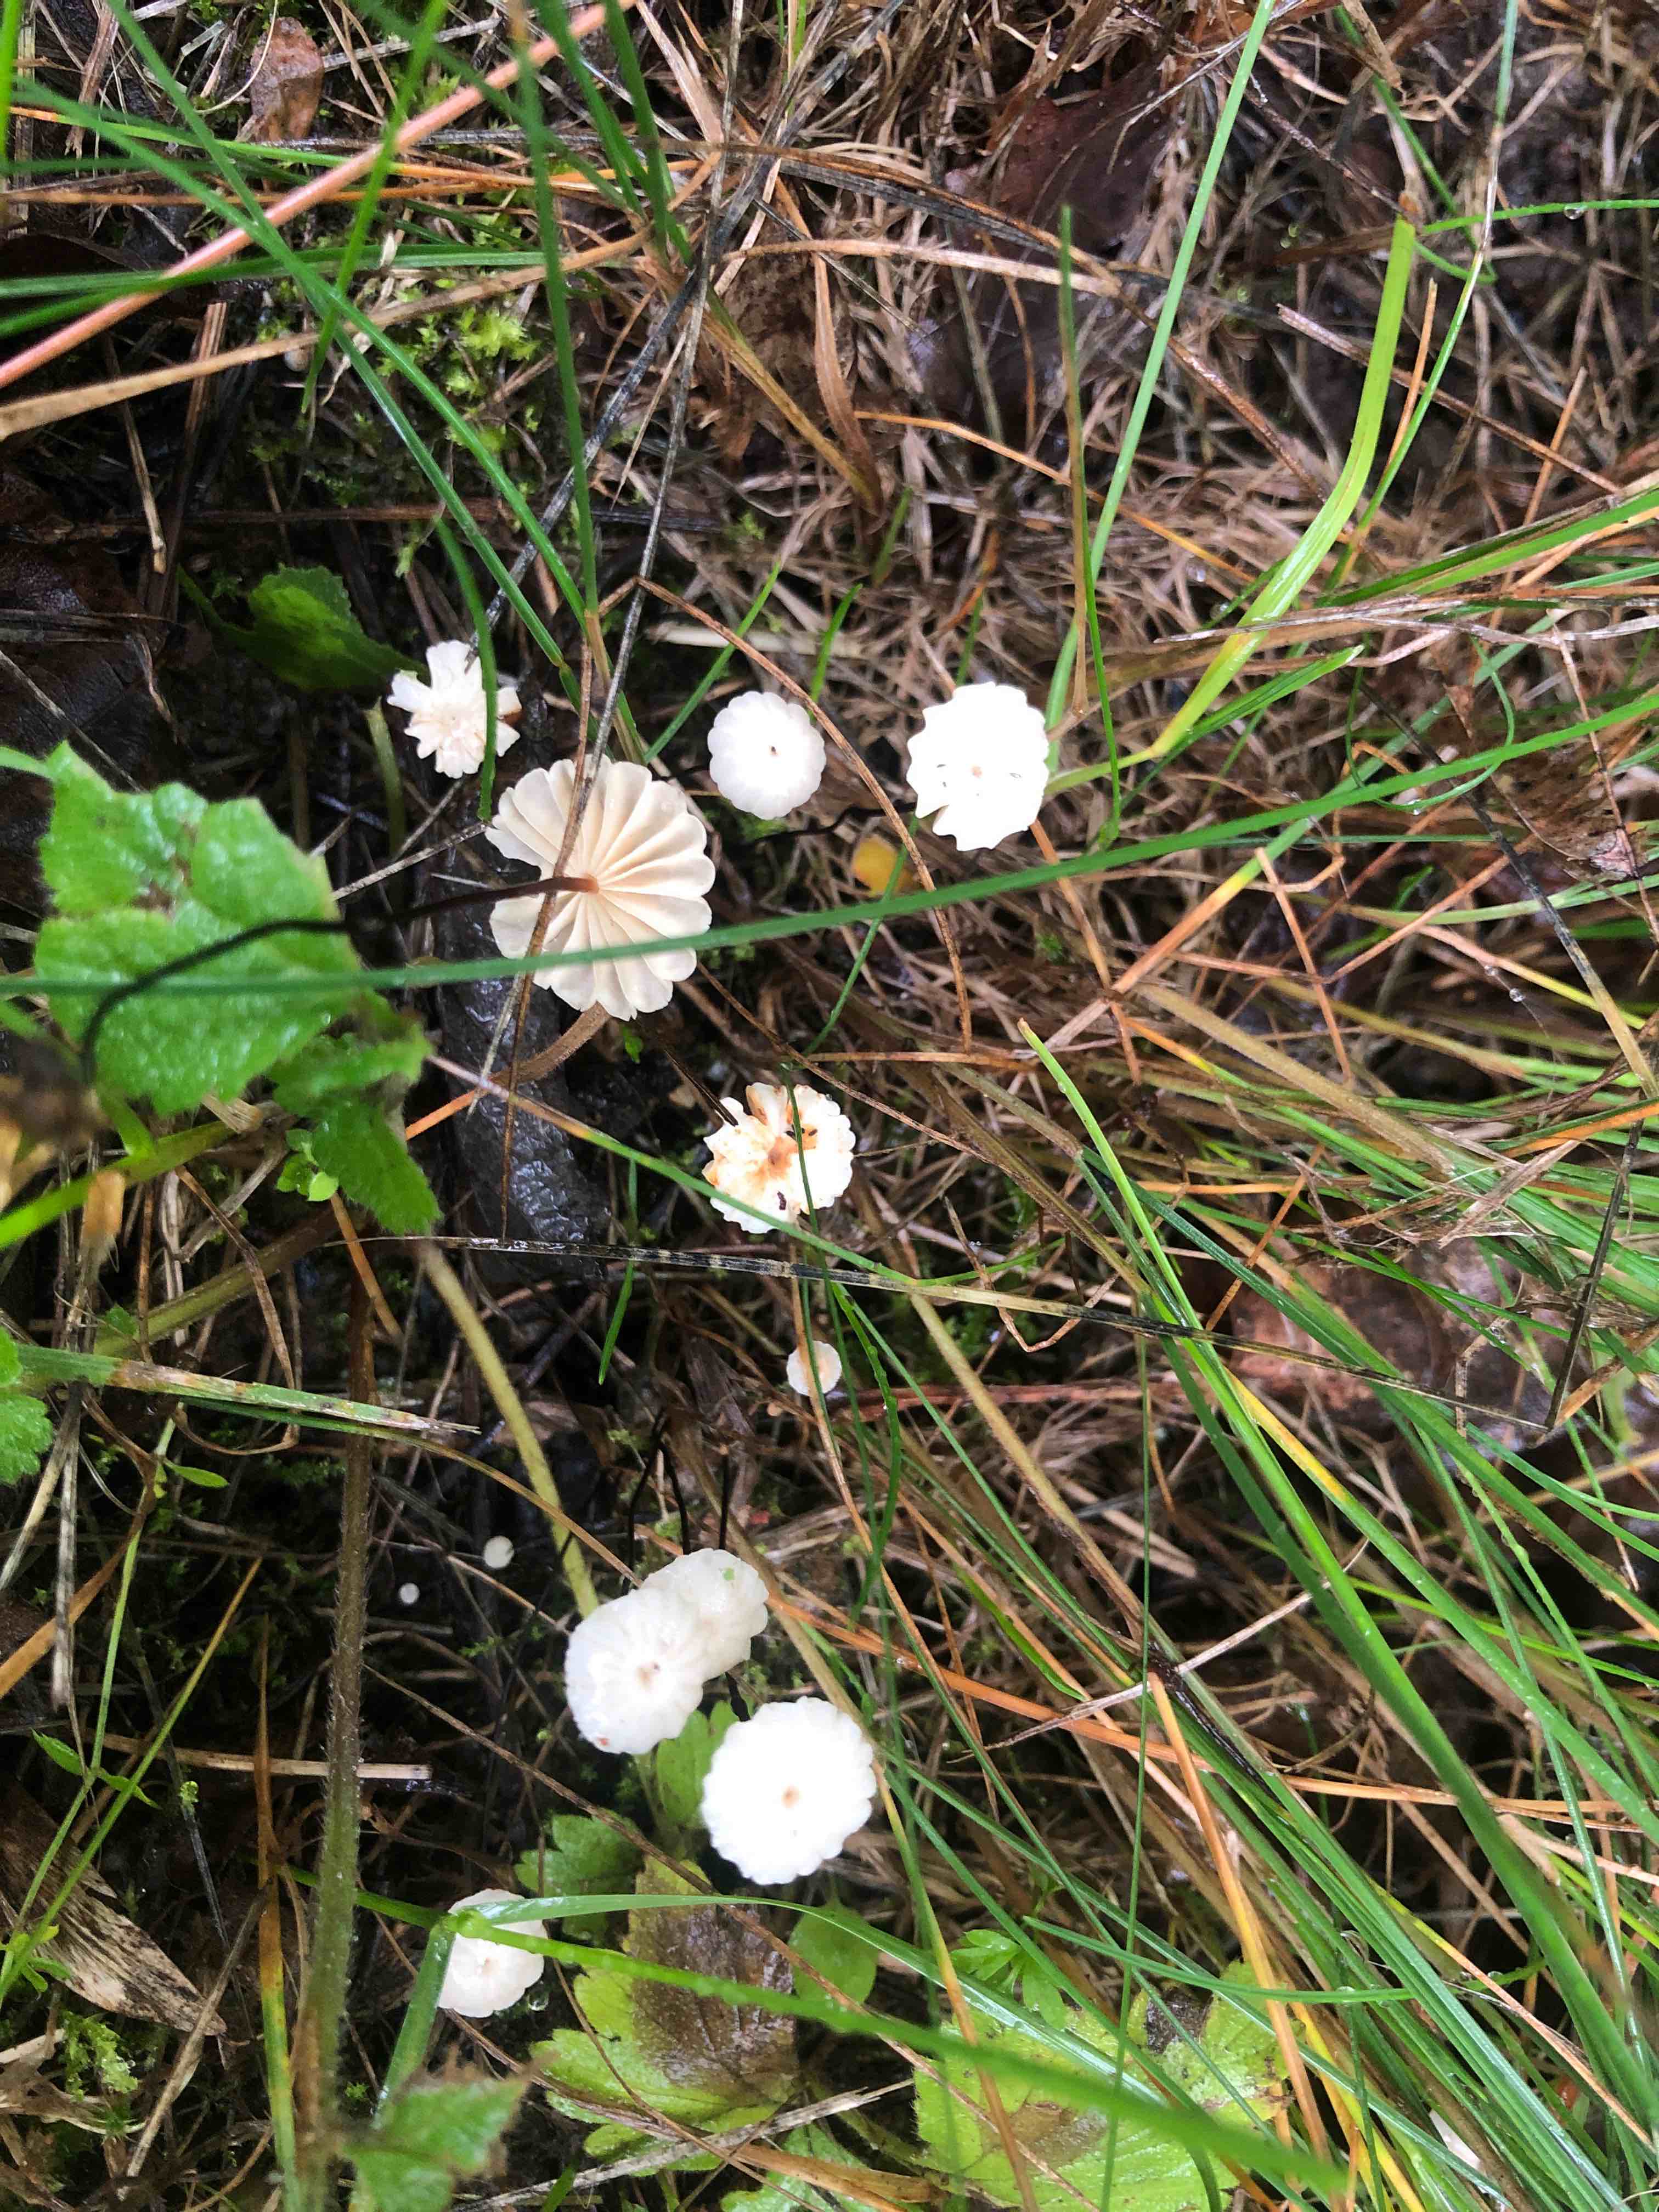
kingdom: Fungi
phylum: Basidiomycota
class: Agaricomycetes
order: Agaricales
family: Marasmiaceae
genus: Marasmius
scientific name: Marasmius rotula
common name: hjul-bruskhat
